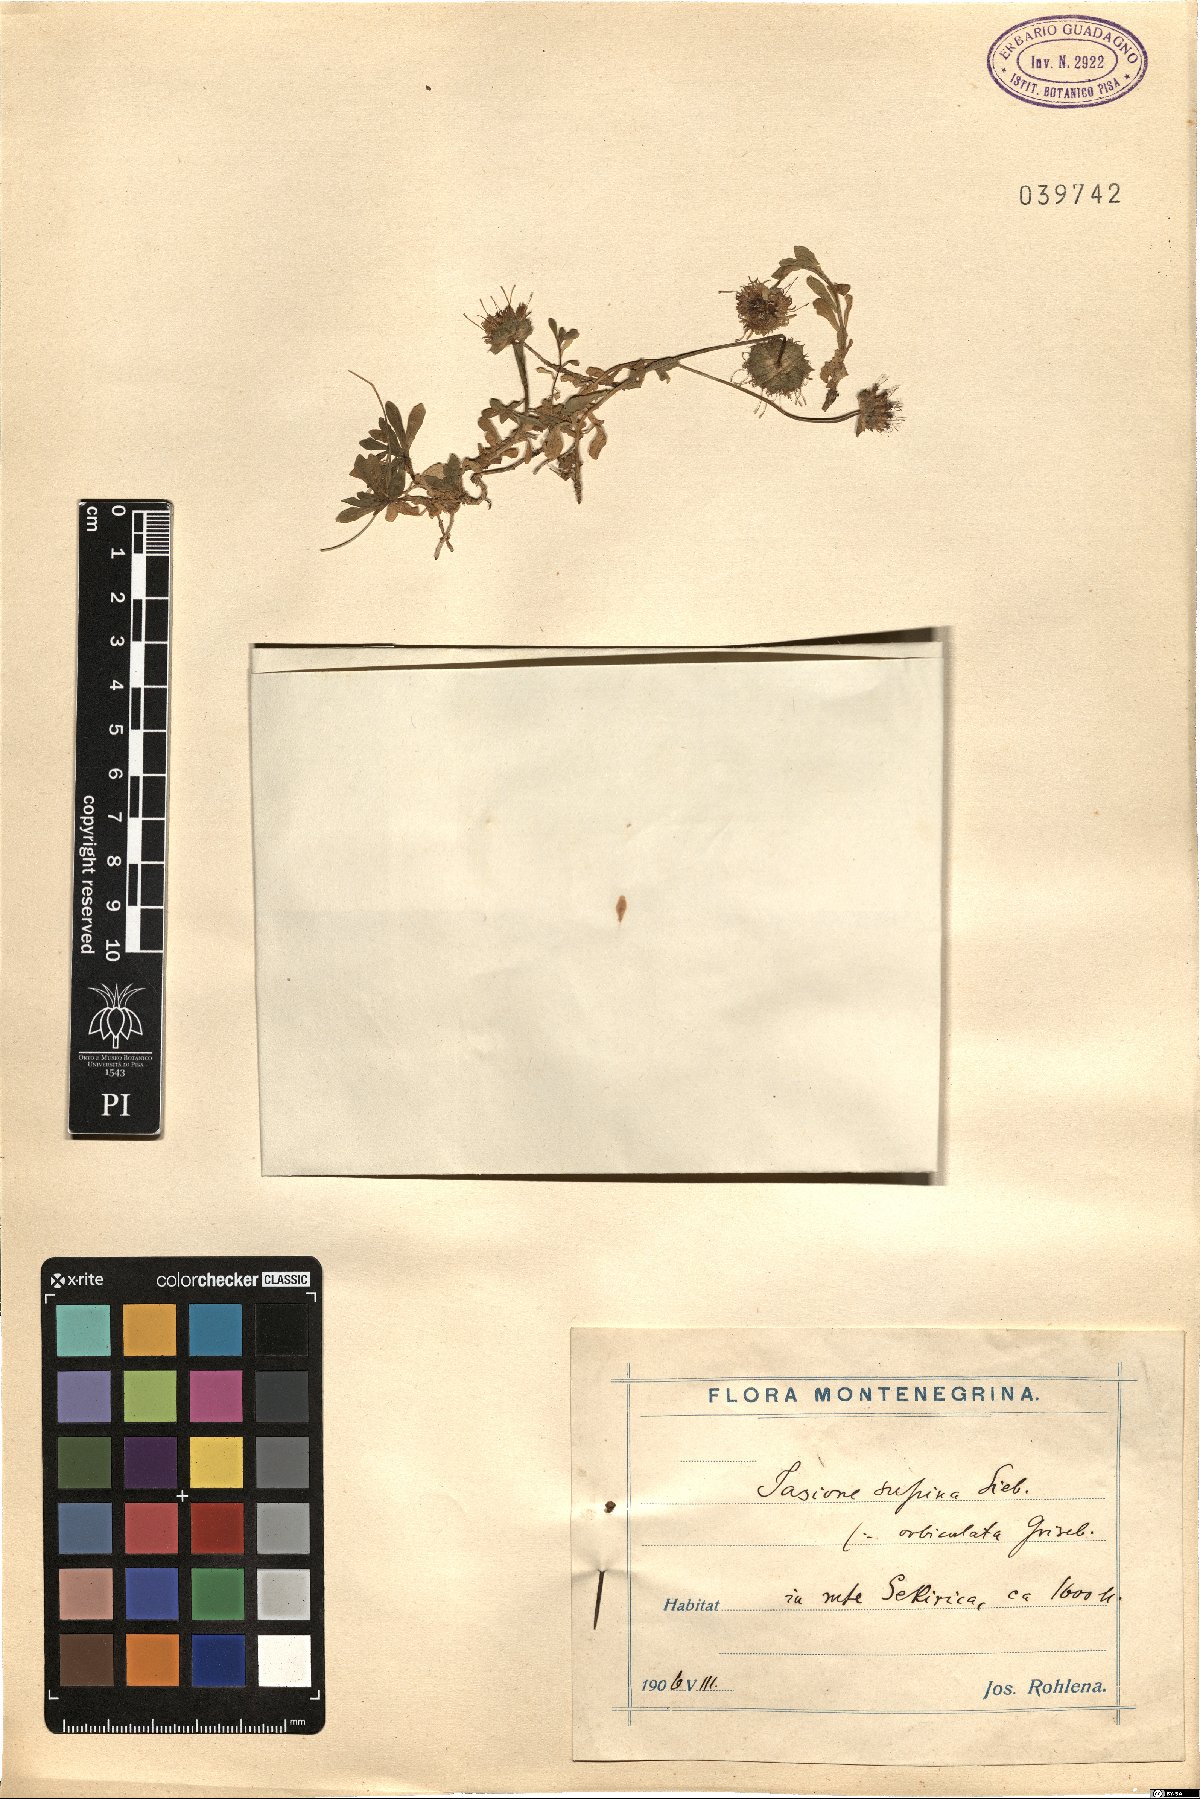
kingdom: Plantae
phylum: Tracheophyta
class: Magnoliopsida
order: Asterales
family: Campanulaceae
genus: Jasione
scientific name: Jasione supina
